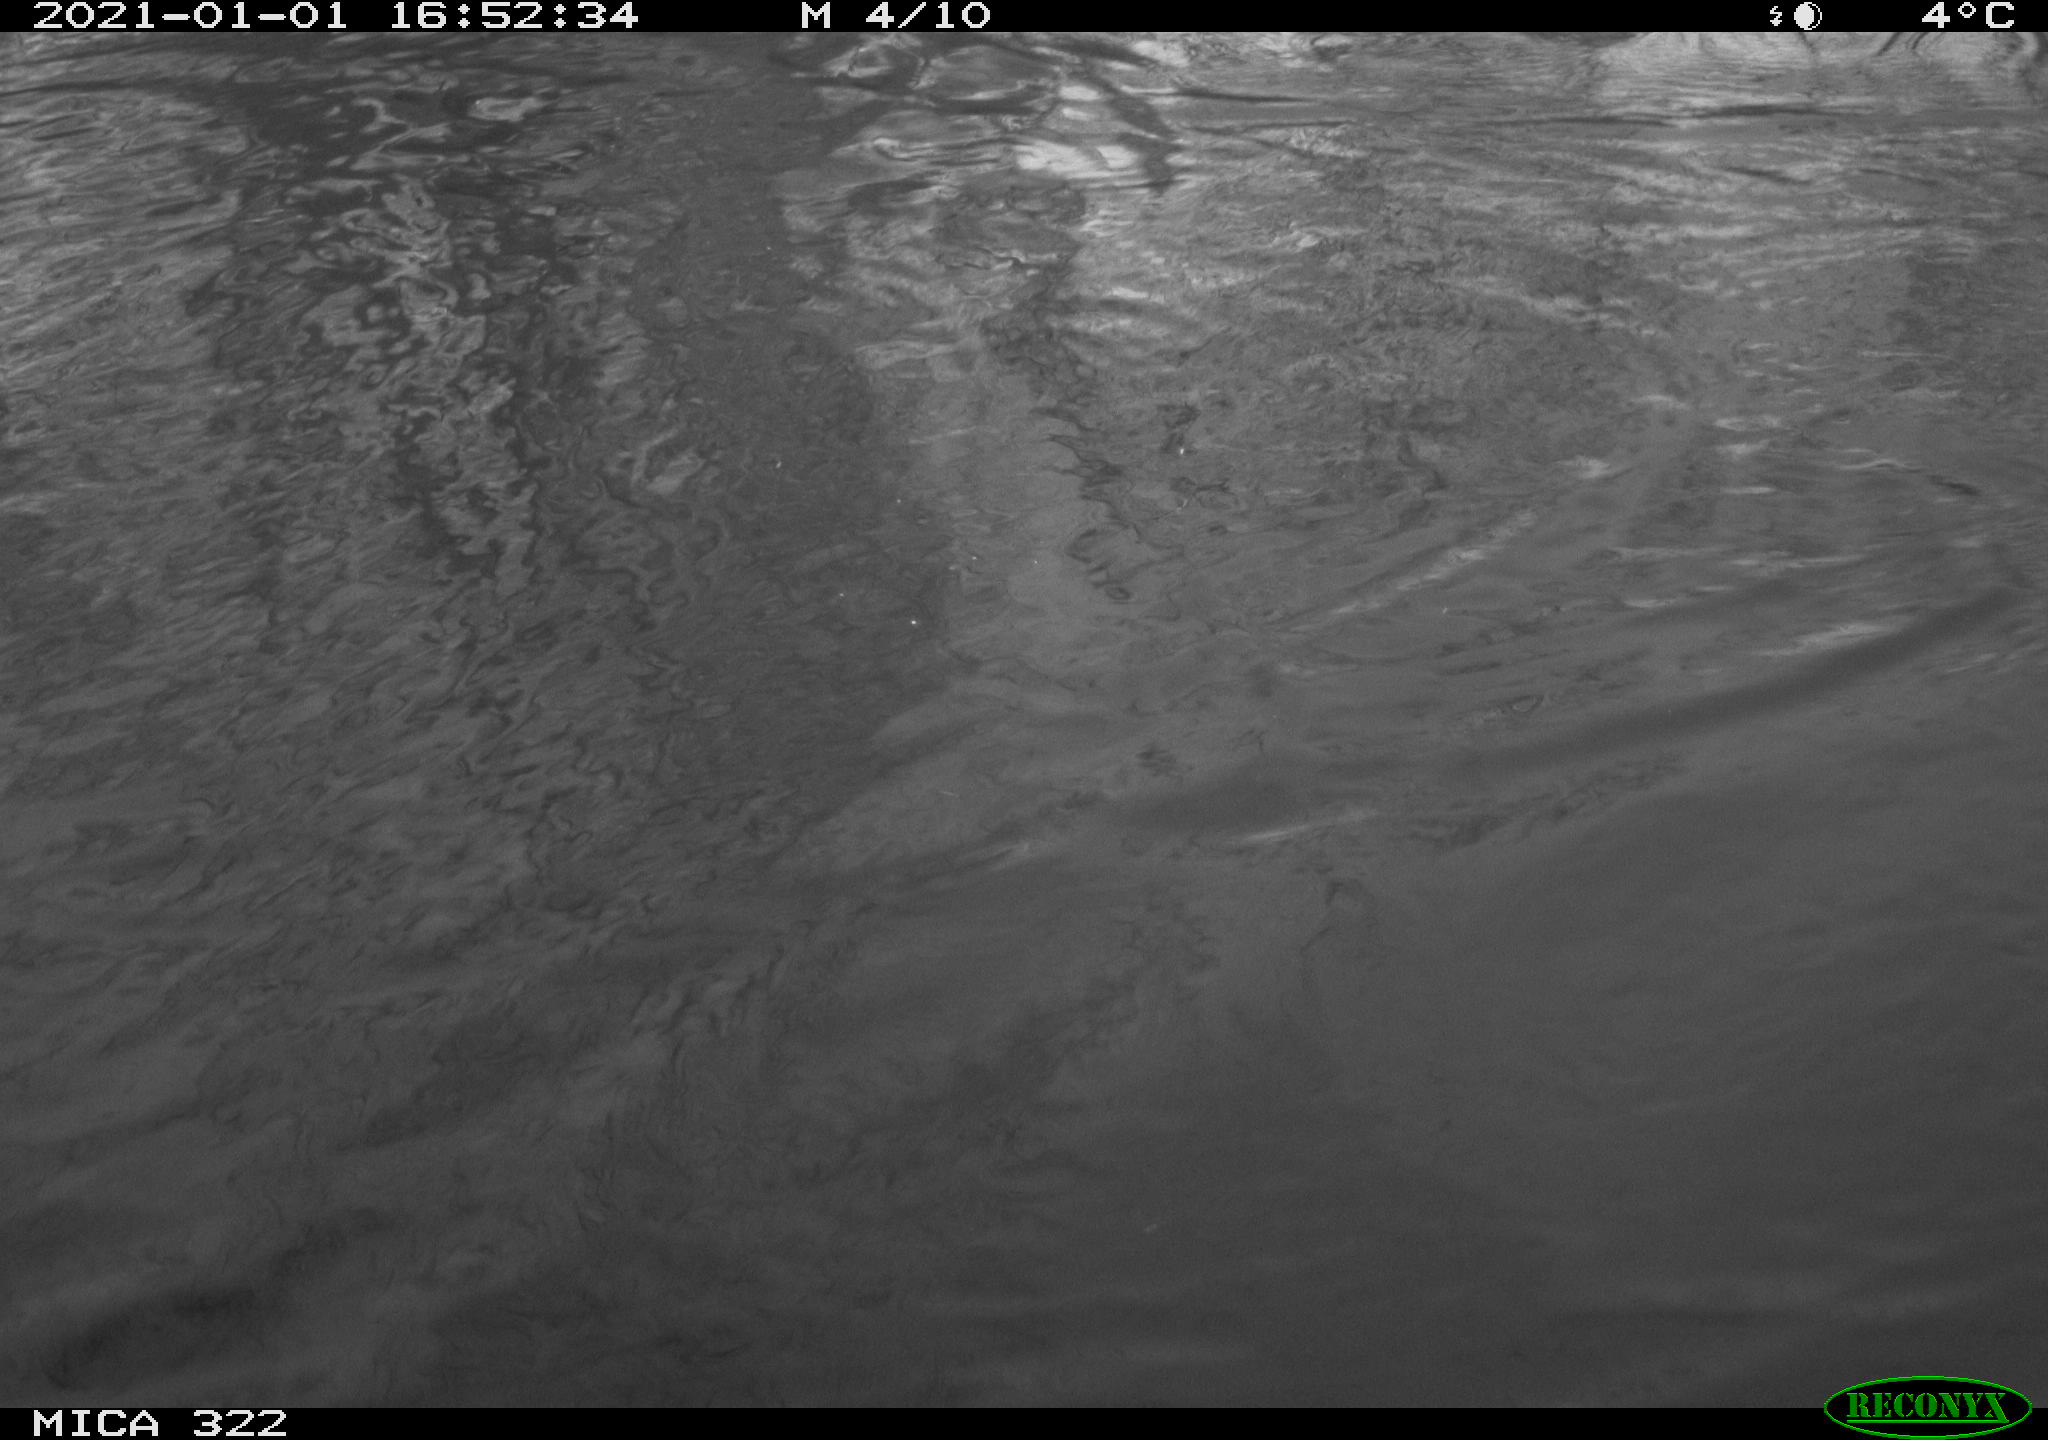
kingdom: Animalia
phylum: Chordata
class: Aves
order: Gruiformes
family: Rallidae
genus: Fulica
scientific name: Fulica atra
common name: Eurasian coot
